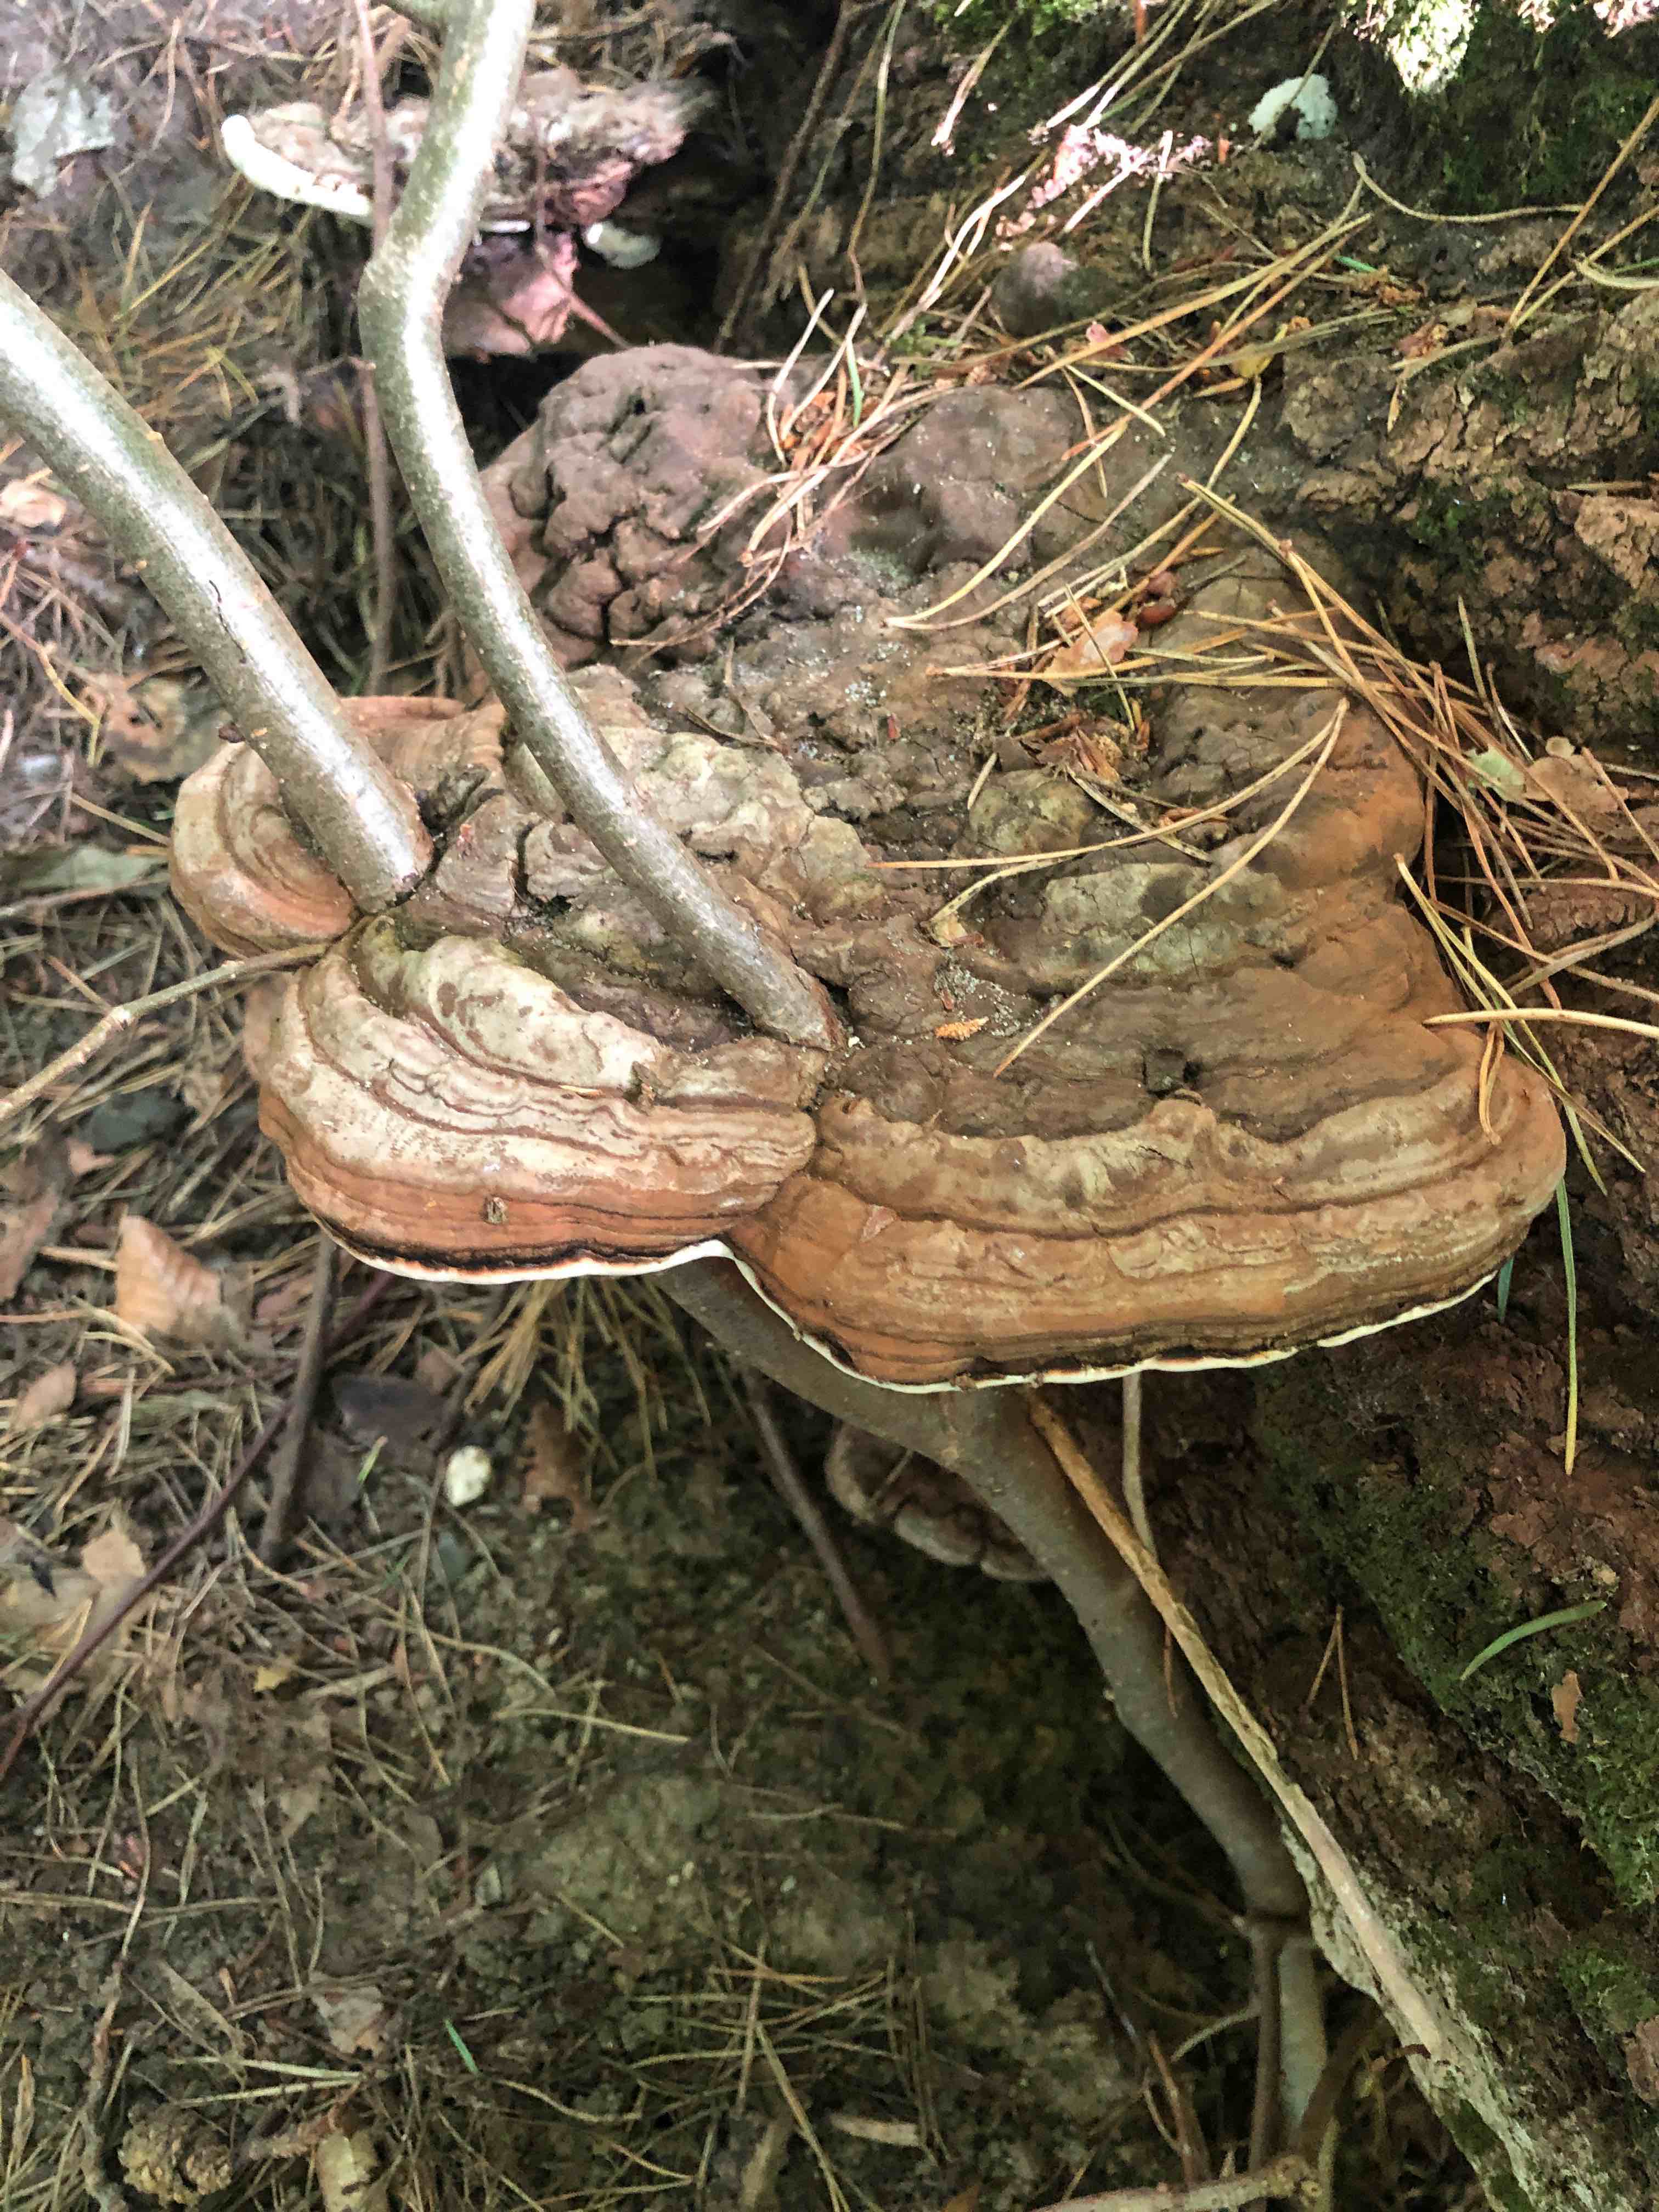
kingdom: Fungi
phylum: Basidiomycota
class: Agaricomycetes
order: Polyporales
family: Polyporaceae
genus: Ganoderma
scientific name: Ganoderma applanatum
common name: flad lakporesvamp
